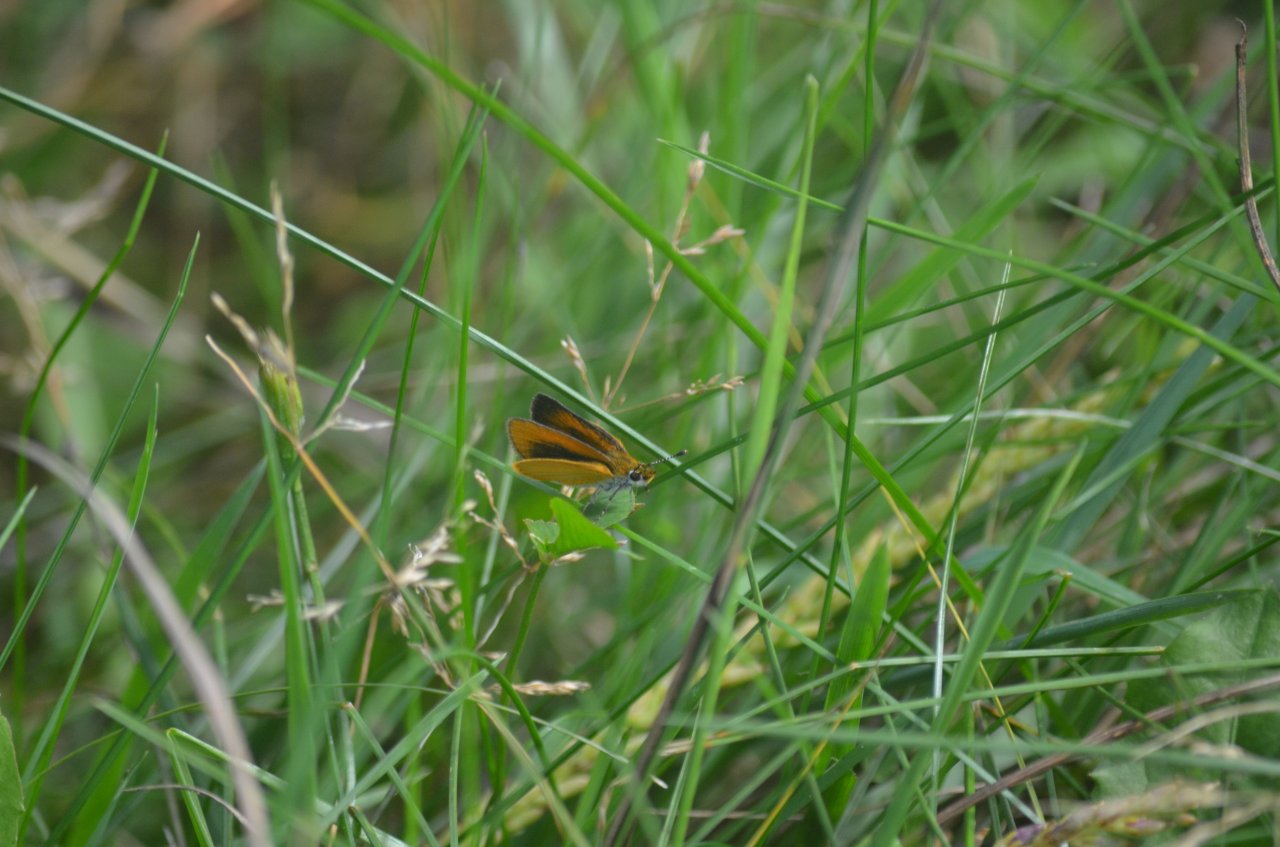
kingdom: Animalia
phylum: Arthropoda
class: Insecta
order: Lepidoptera
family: Hesperiidae
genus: Ancyloxypha
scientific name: Ancyloxypha numitor
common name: Least Skipper
